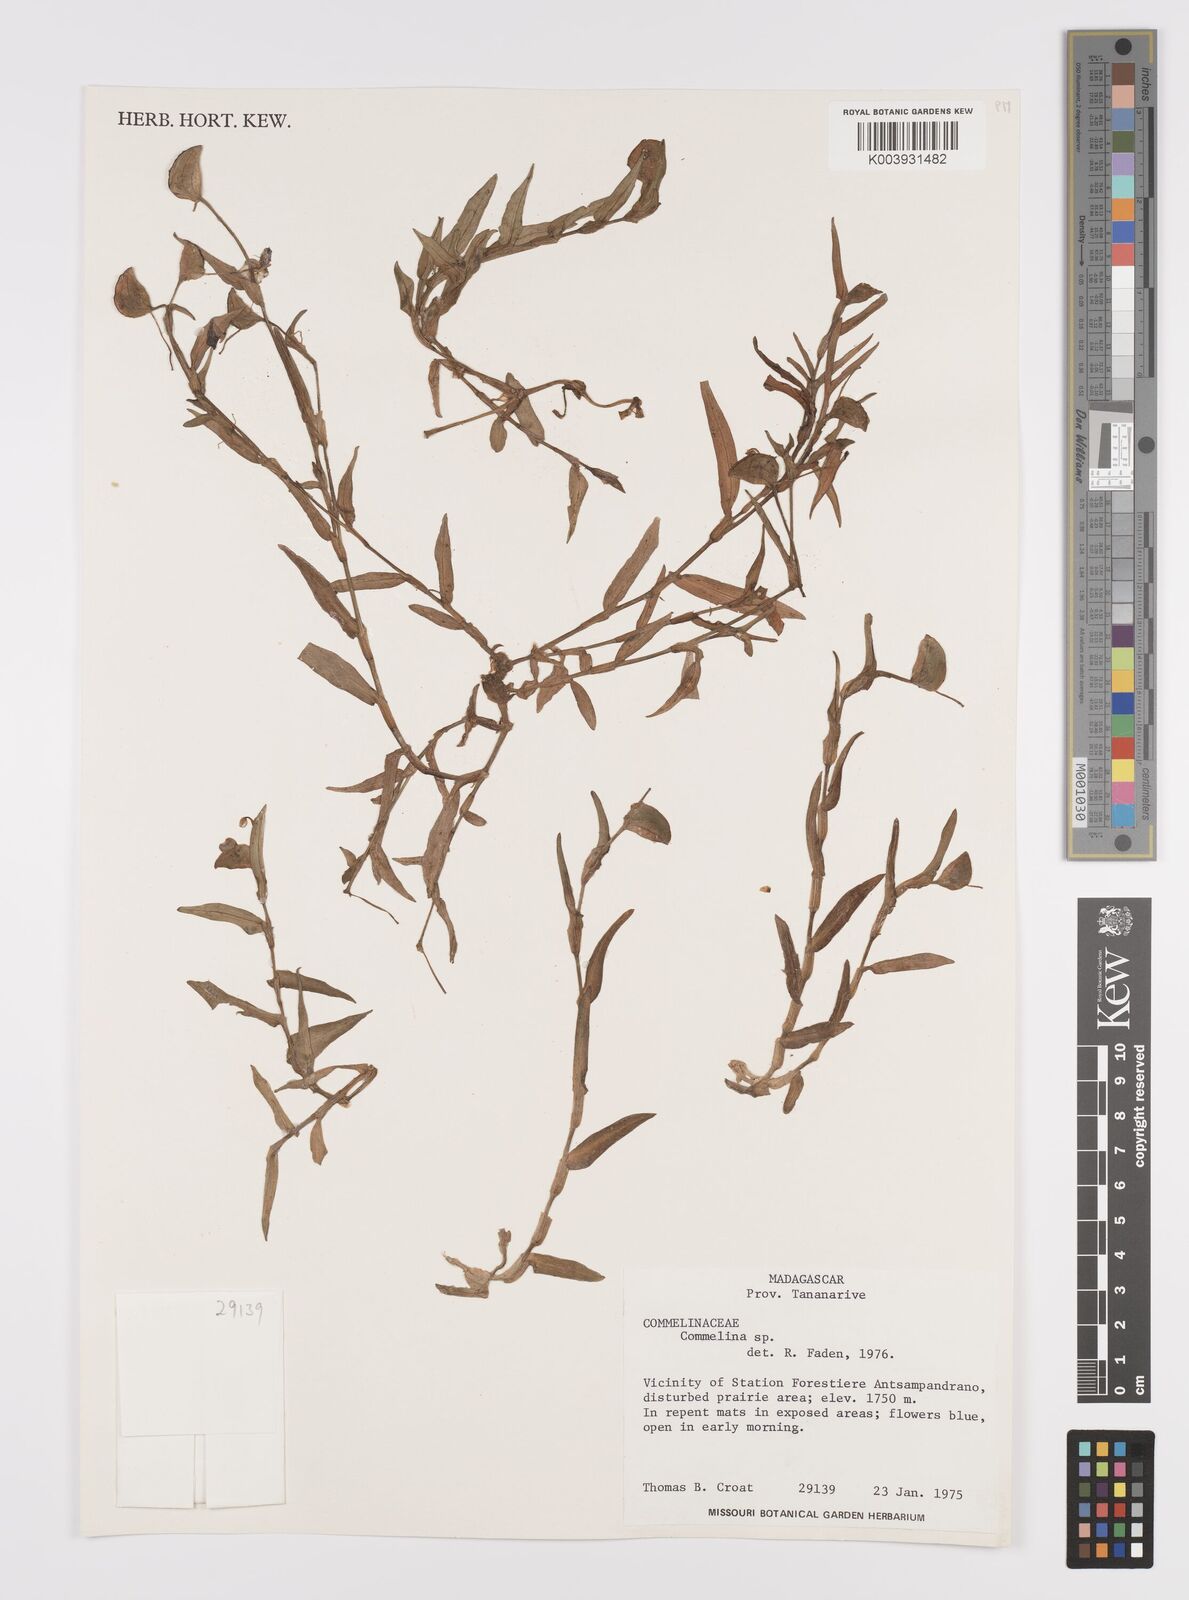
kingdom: Plantae
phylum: Tracheophyta
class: Liliopsida
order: Commelinales
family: Commelinaceae
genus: Commelina
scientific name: Commelina
